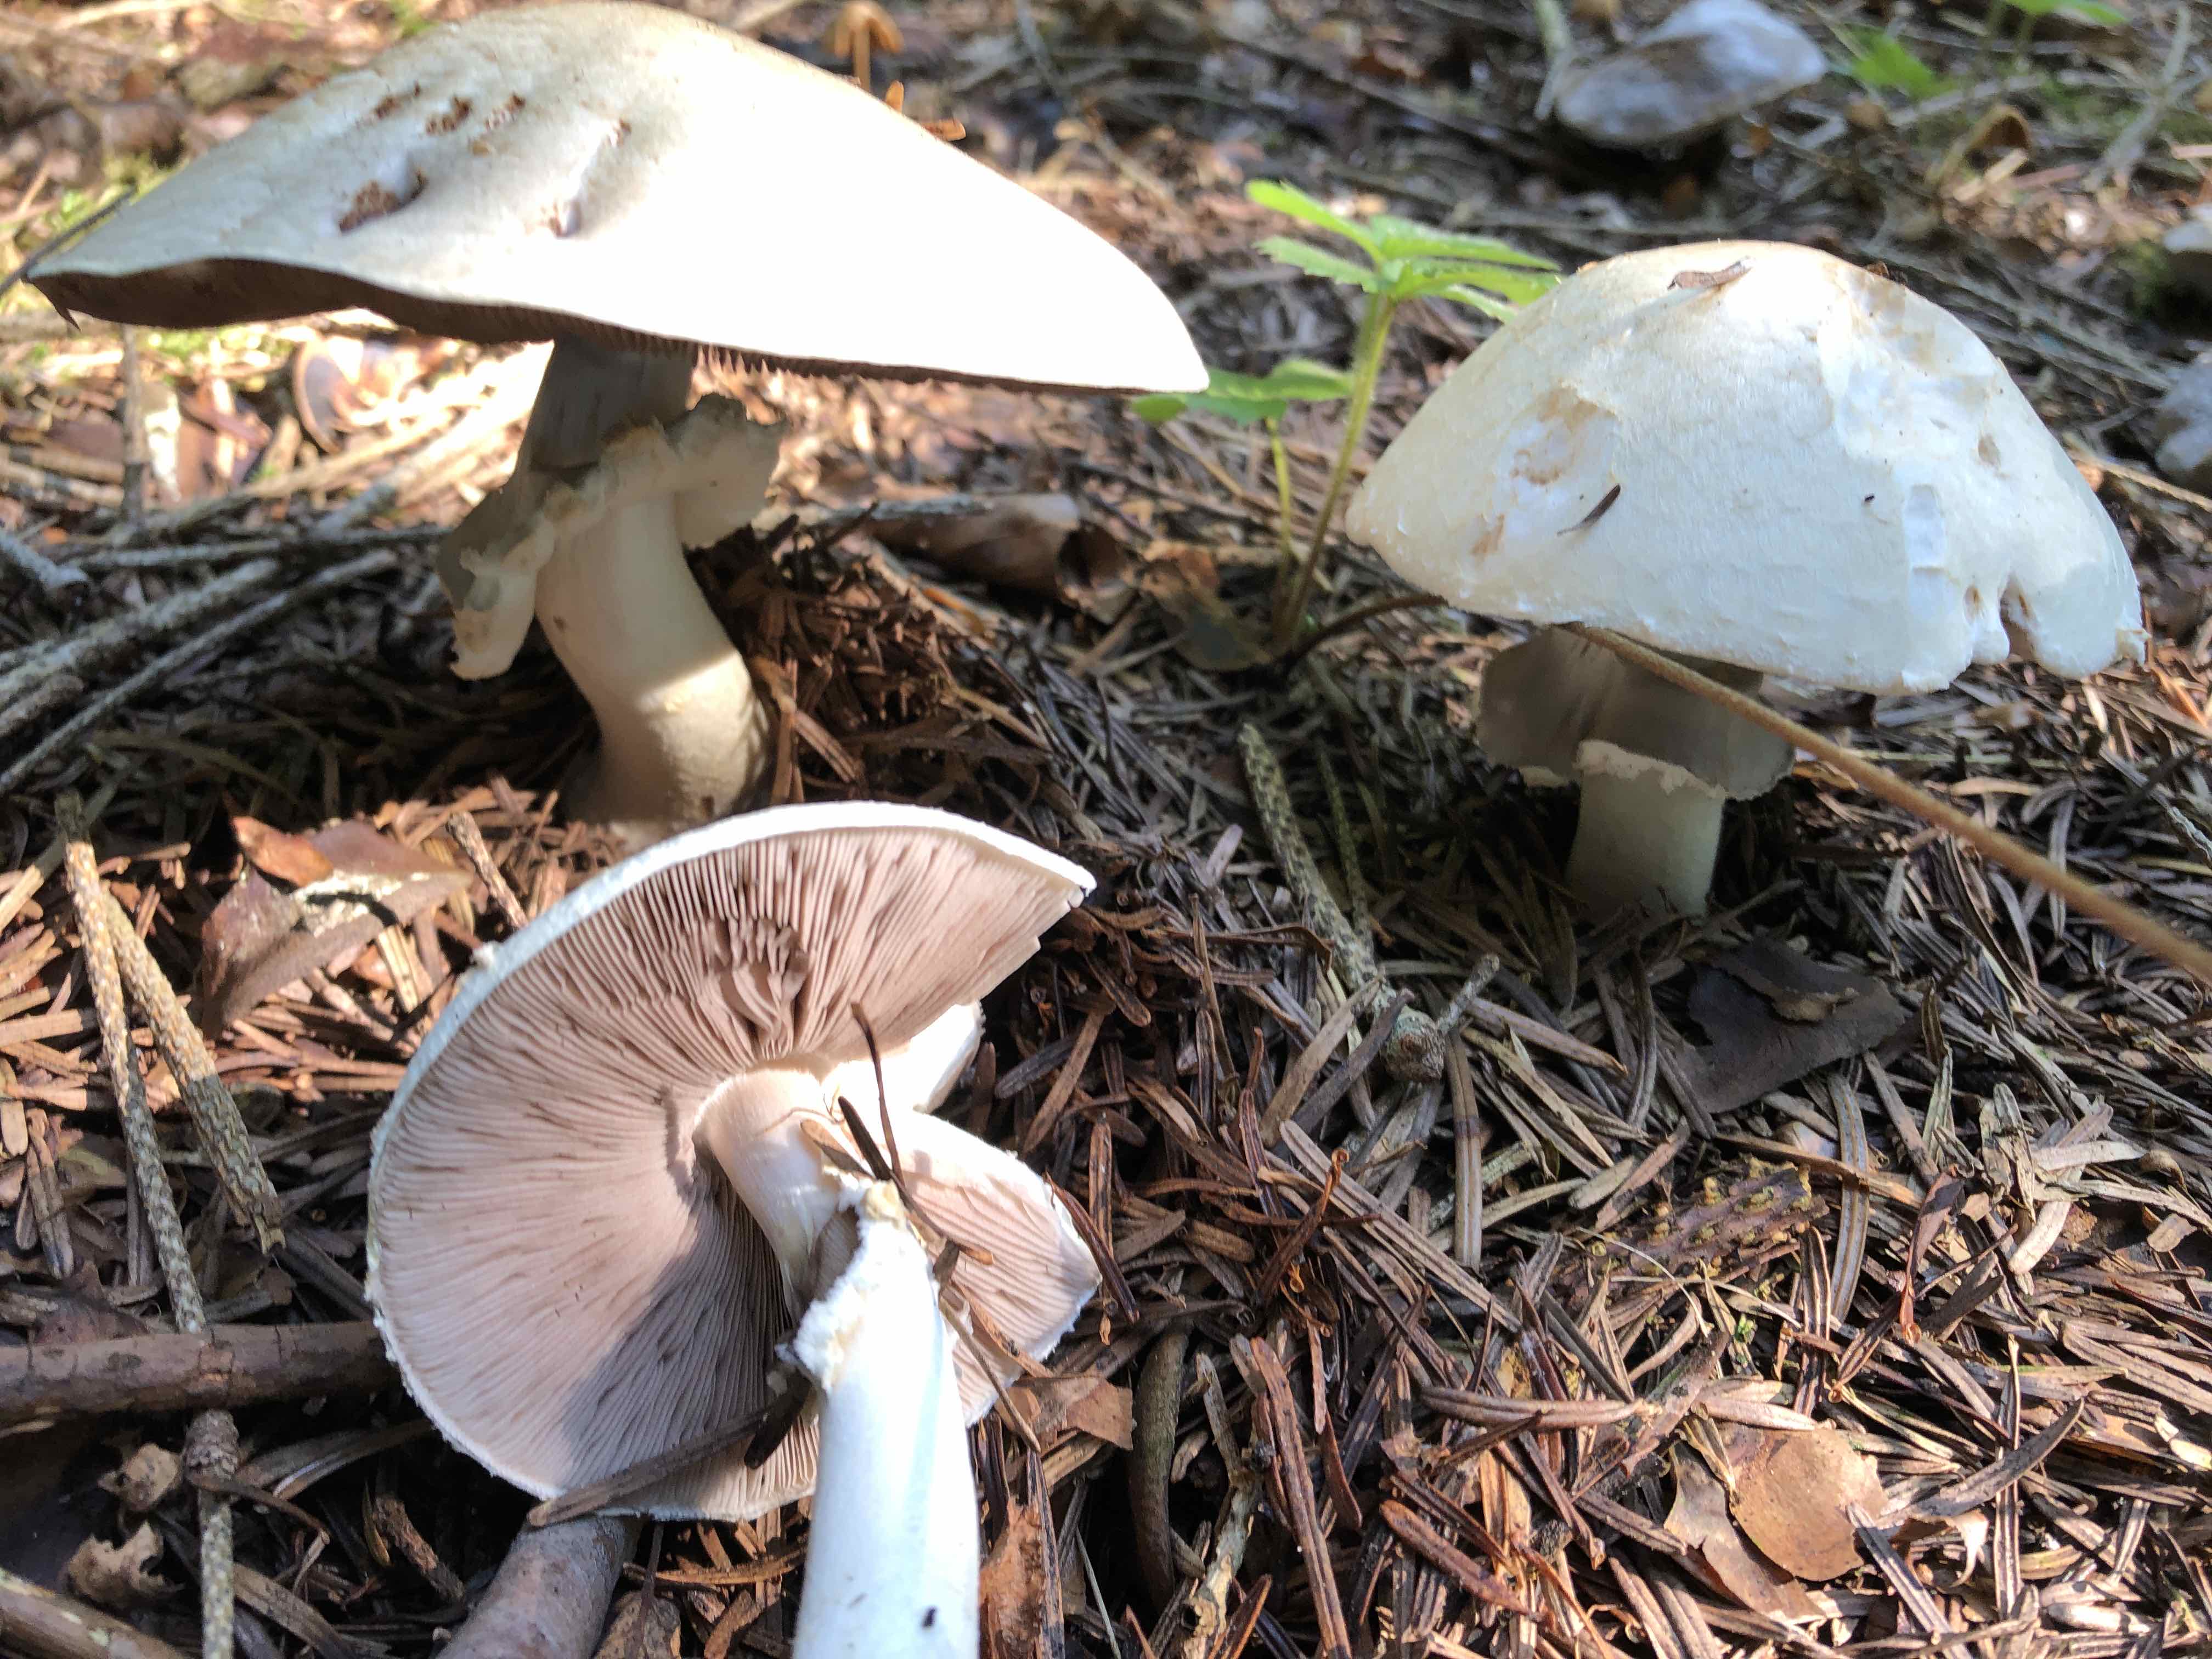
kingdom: Fungi
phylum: Basidiomycota
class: Agaricomycetes
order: Agaricales
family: Agaricaceae
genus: Agaricus
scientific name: Agaricus
